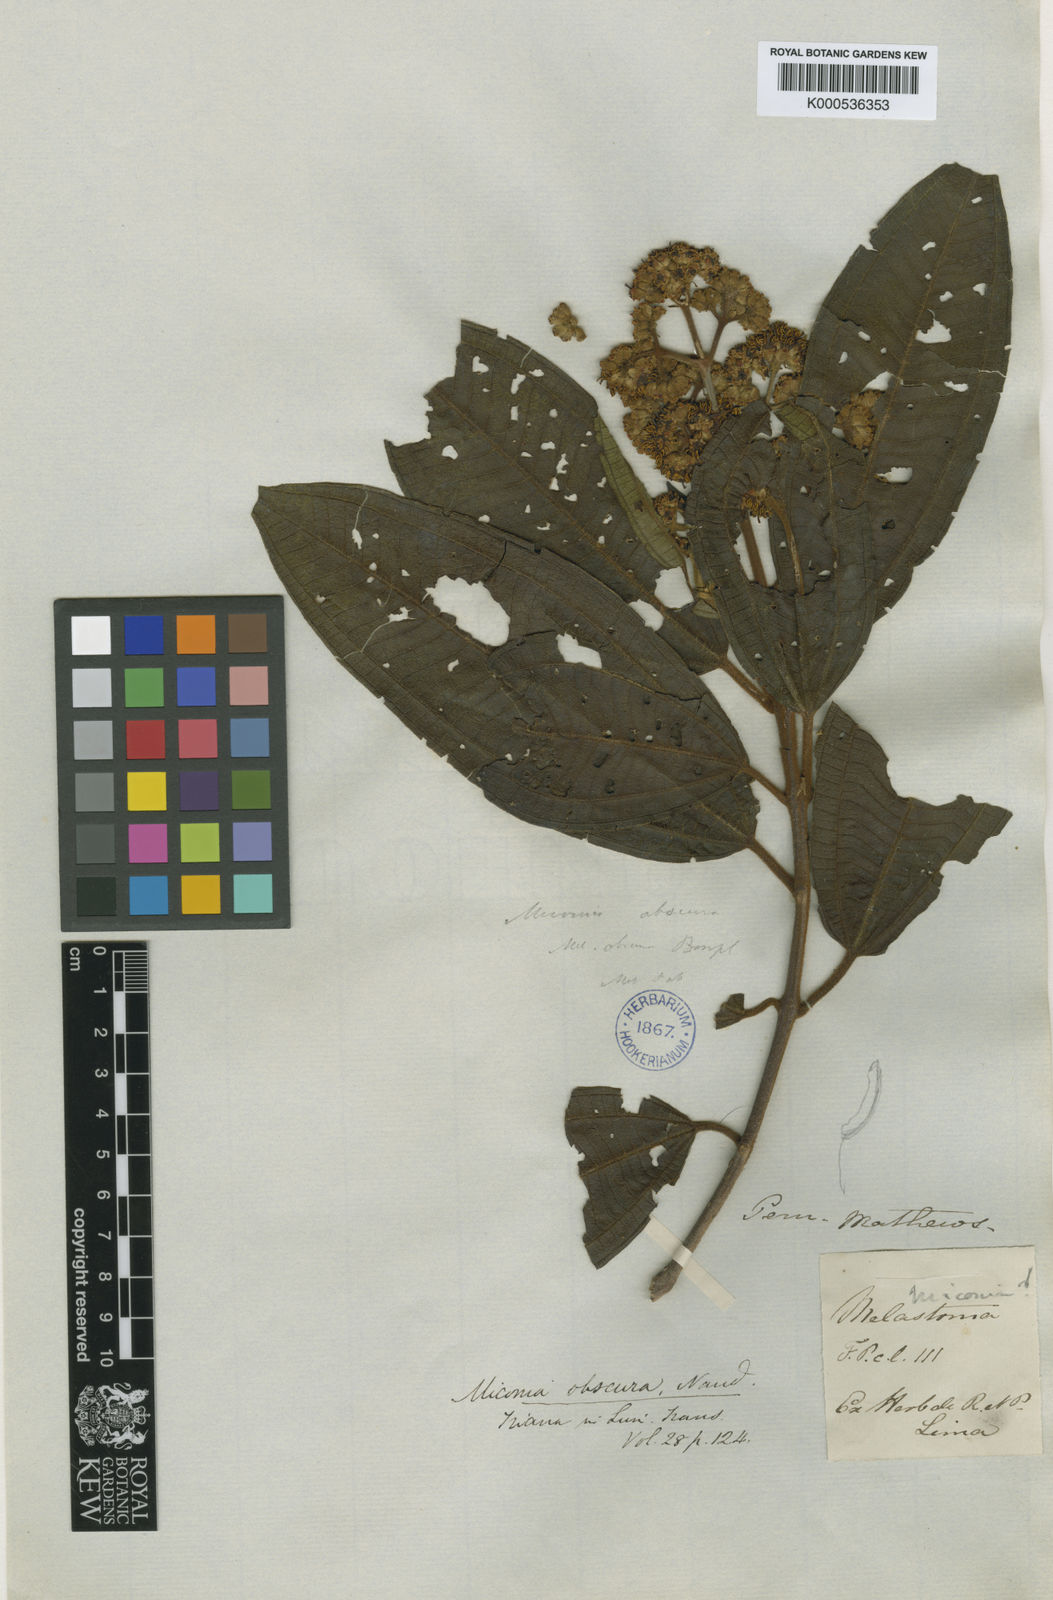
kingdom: Plantae
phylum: Tracheophyta
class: Magnoliopsida
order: Myrtales
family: Melastomataceae
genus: Miconia
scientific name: Miconia obscura
